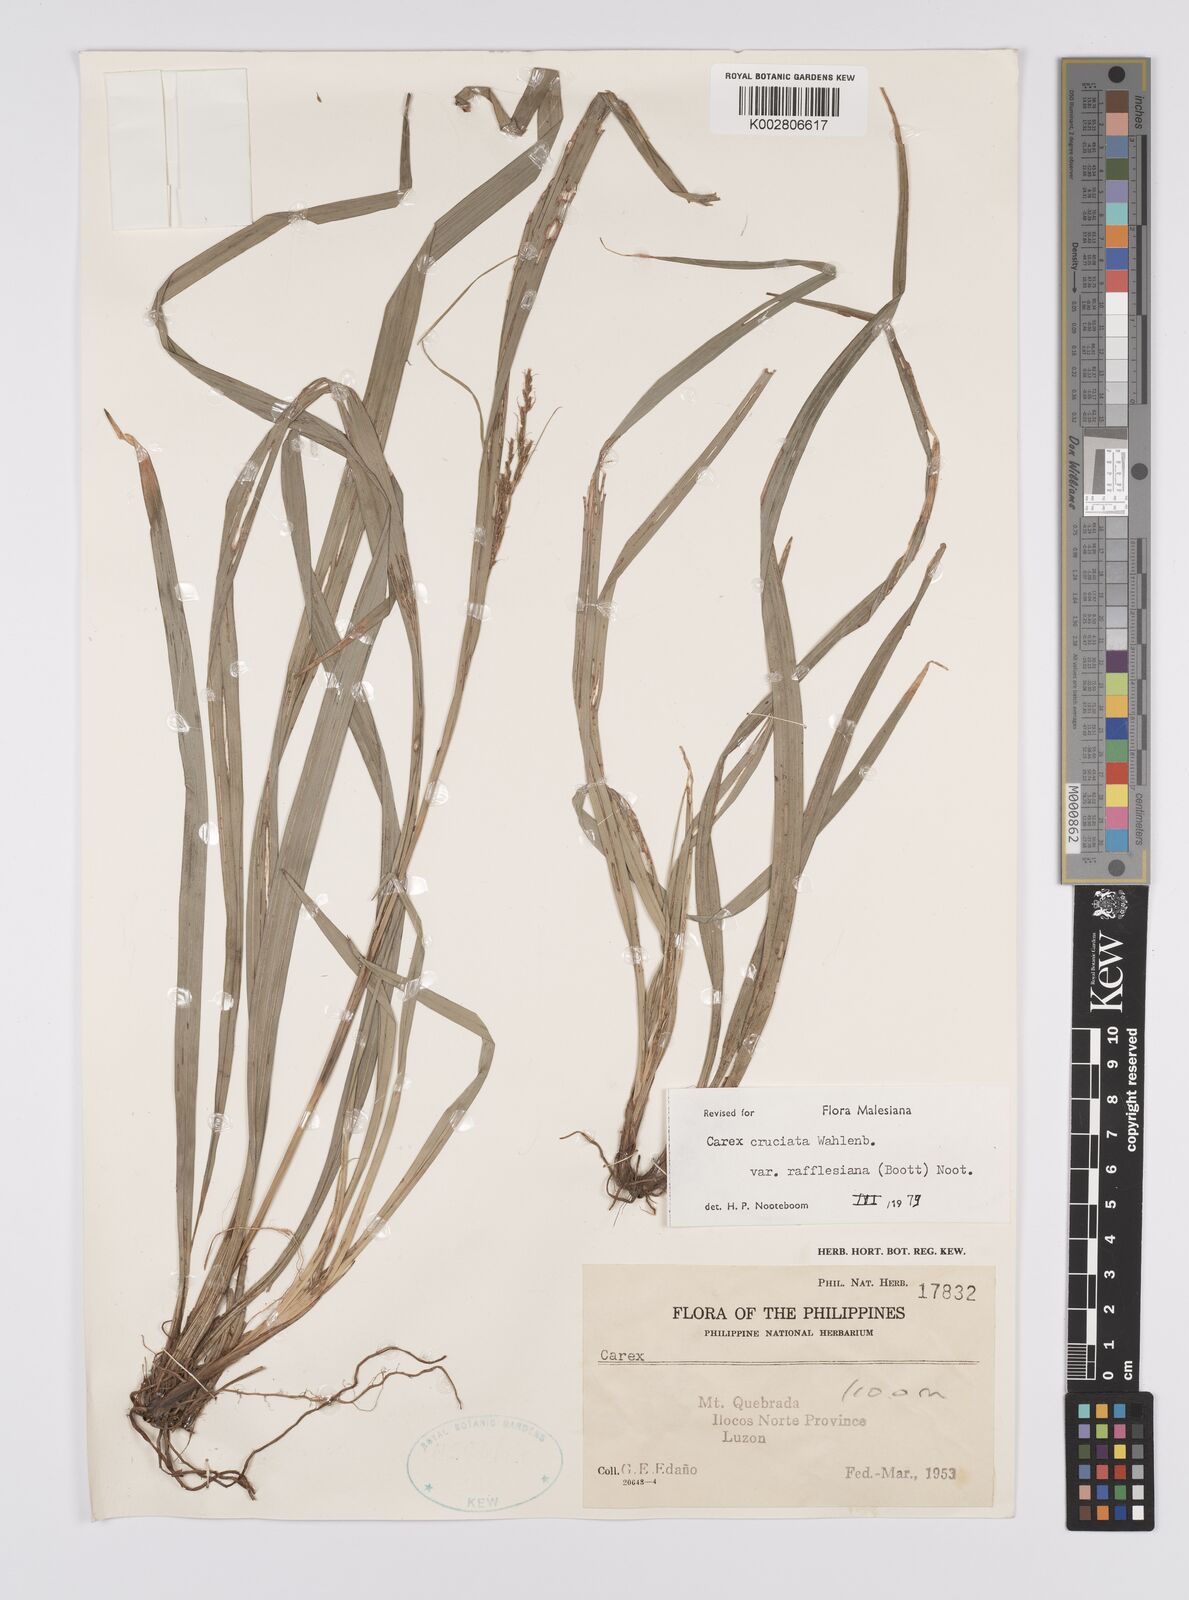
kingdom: Plantae
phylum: Tracheophyta
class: Liliopsida
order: Poales
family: Cyperaceae
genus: Carex
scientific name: Carex rafflesiana
